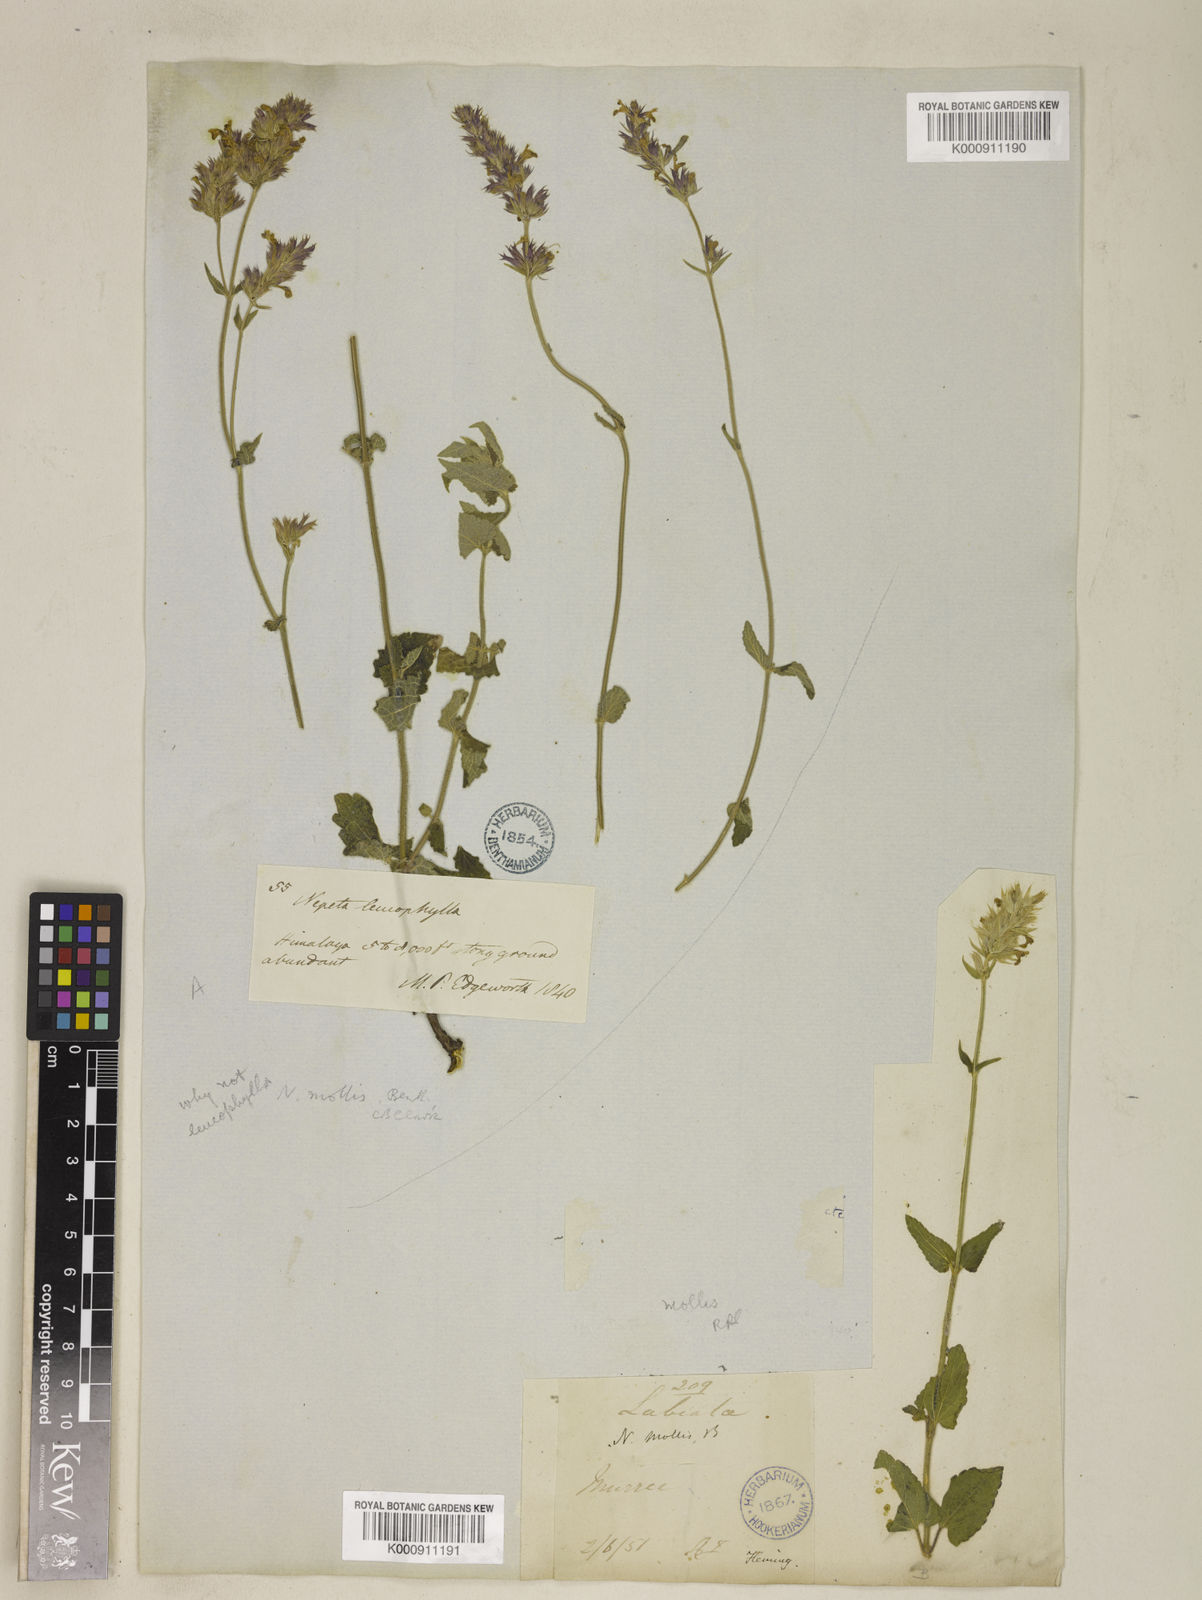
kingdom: Plantae
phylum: Tracheophyta
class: Magnoliopsida
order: Lamiales
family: Lamiaceae
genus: Nepeta
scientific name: Nepeta distans
